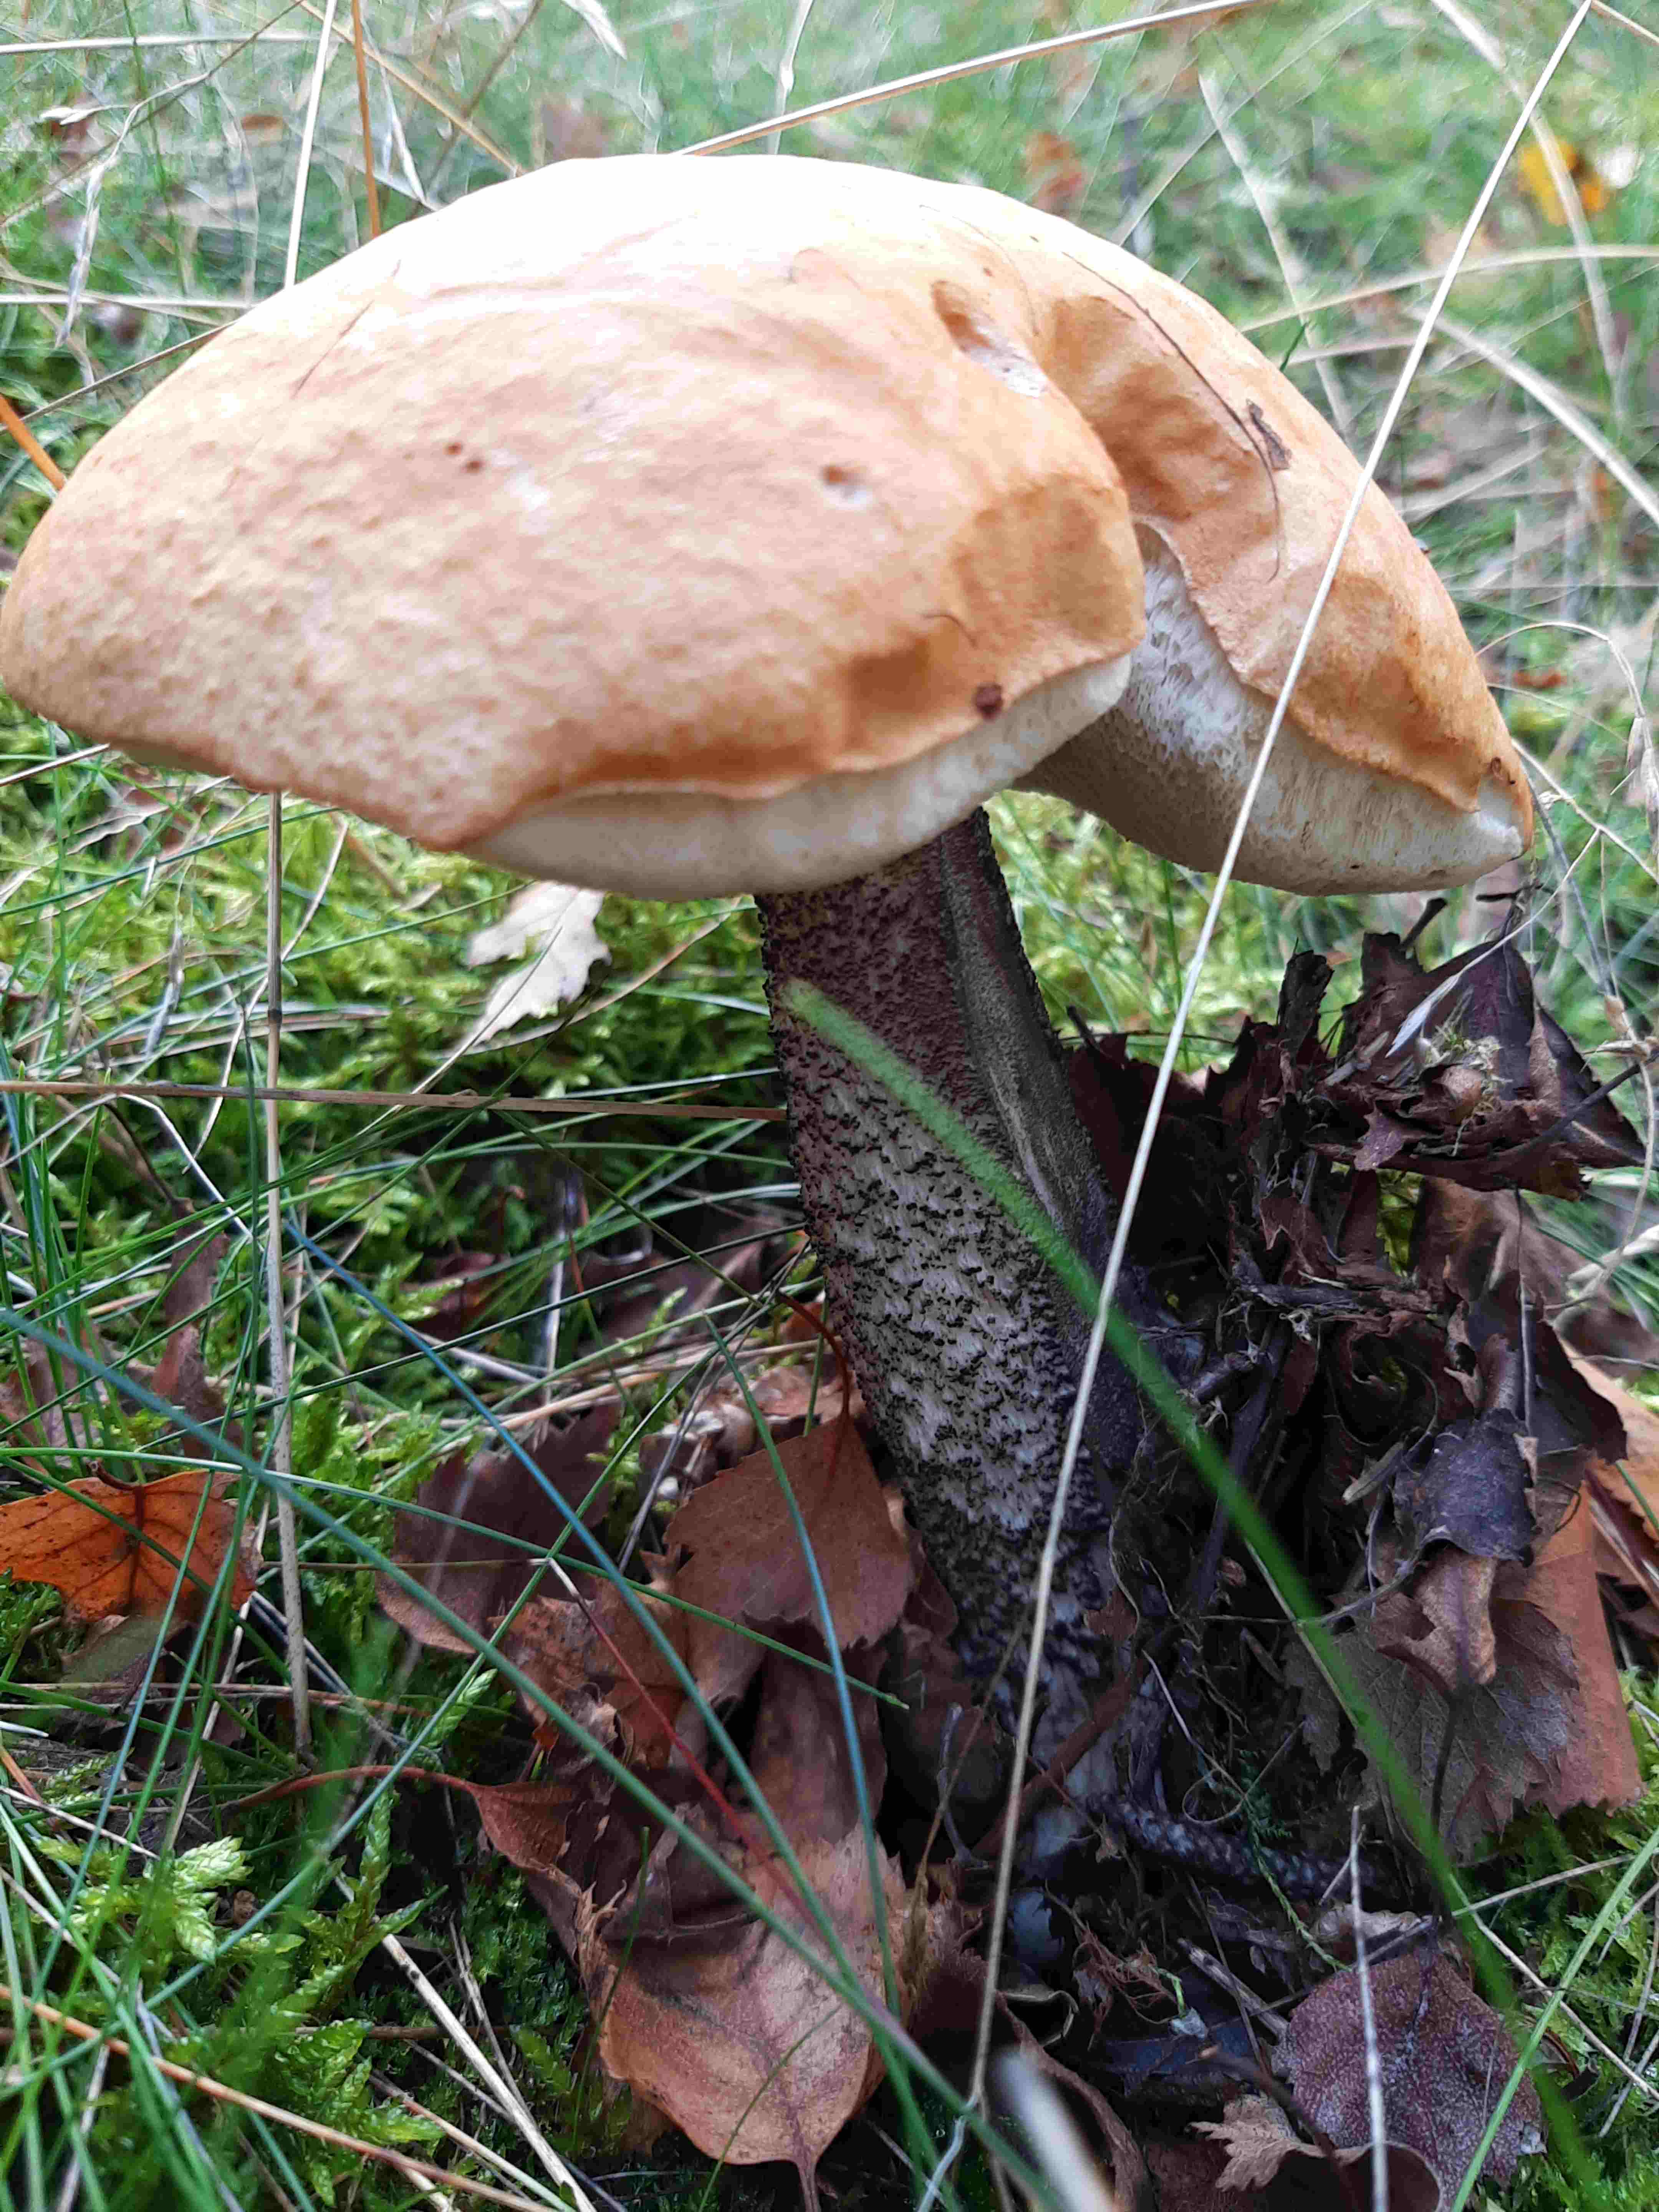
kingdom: Fungi
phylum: Basidiomycota
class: Agaricomycetes
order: Boletales
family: Boletaceae
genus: Leccinum
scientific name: Leccinum versipelle
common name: orange skælrørhat
